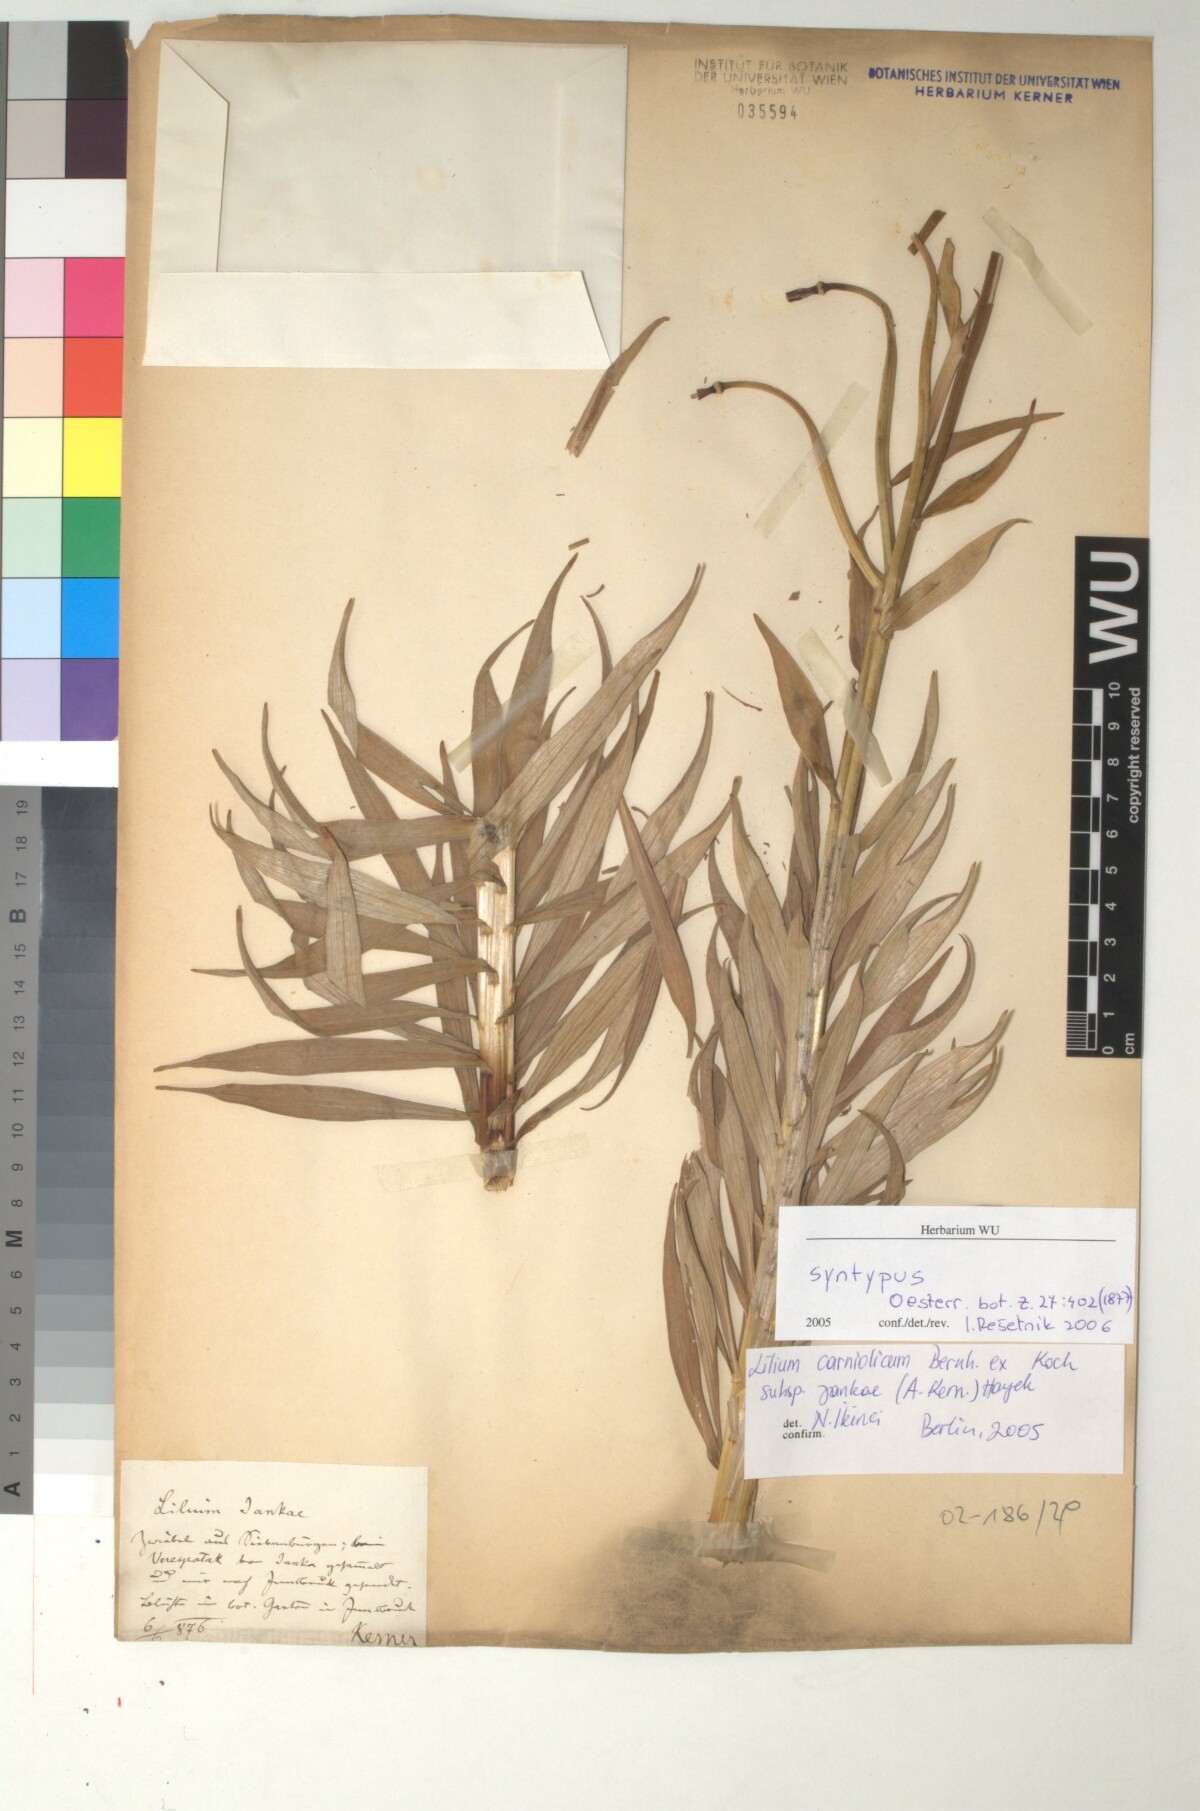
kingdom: Plantae
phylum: Tracheophyta
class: Liliopsida
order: Liliales
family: Liliaceae
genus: Lilium
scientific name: Lilium jankae
